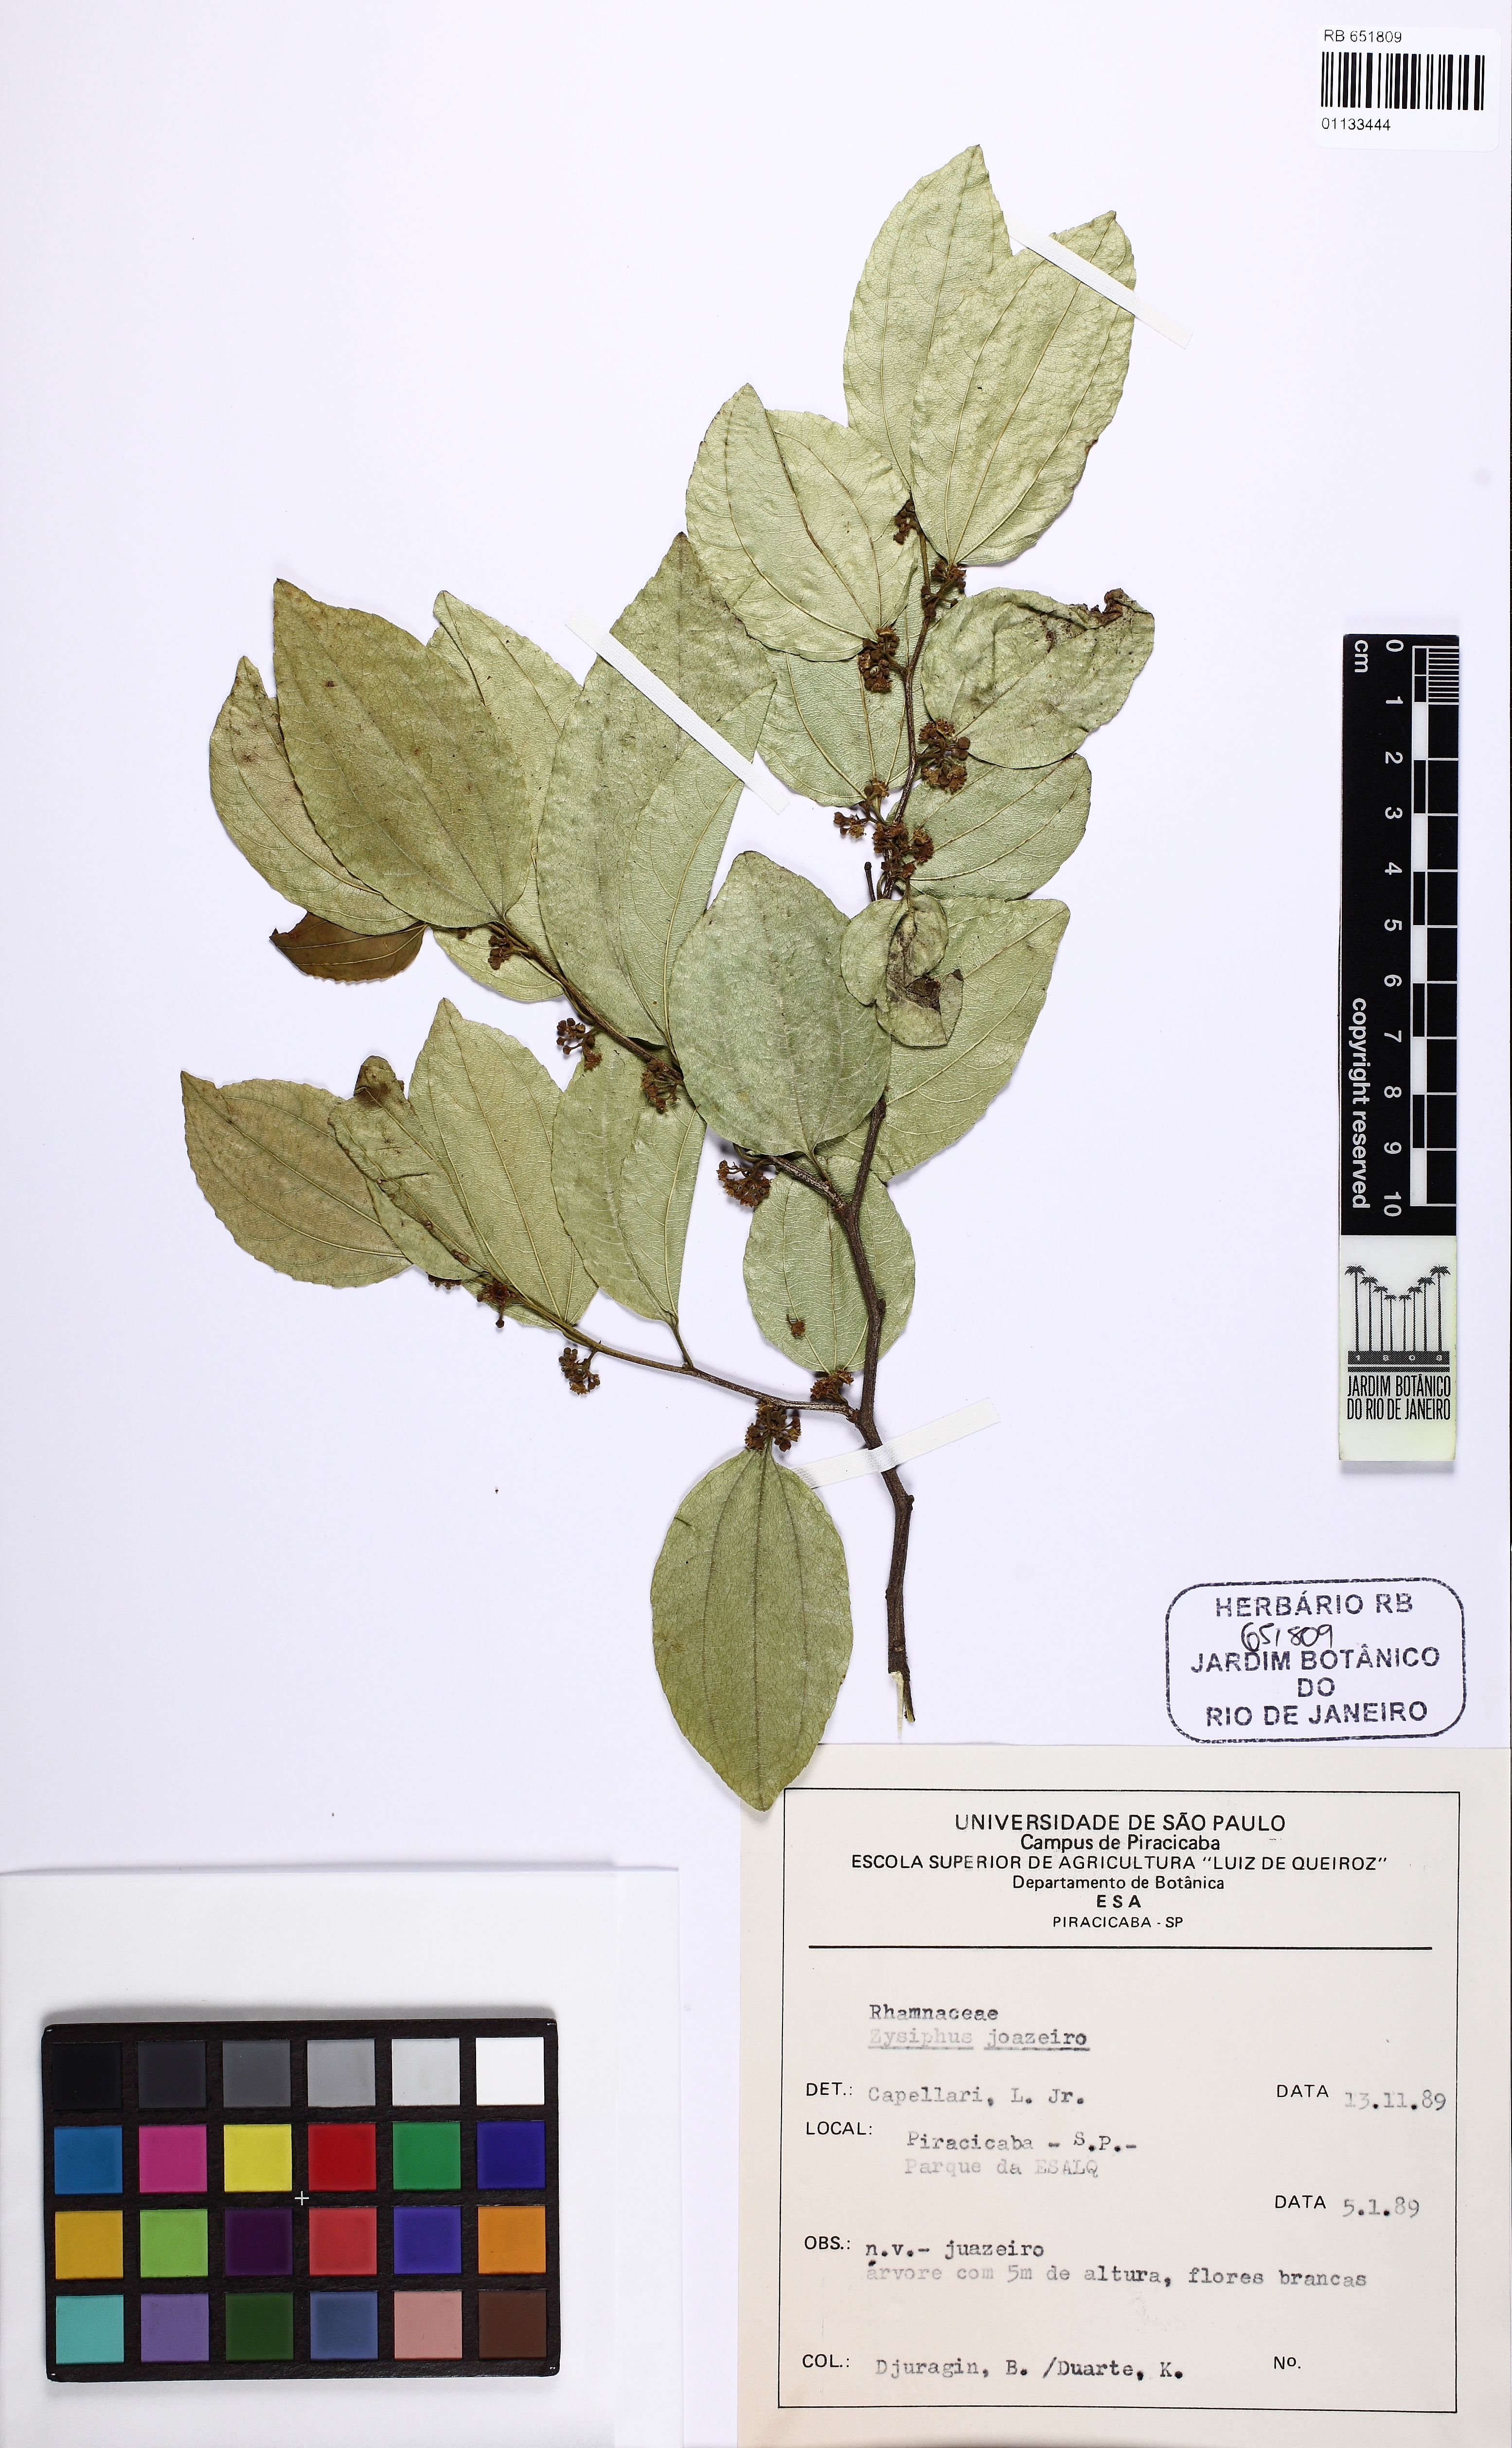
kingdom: Plantae
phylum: Tracheophyta
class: Magnoliopsida
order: Rosales
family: Rhamnaceae
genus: Sarcomphalus
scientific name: Sarcomphalus joazeiro
